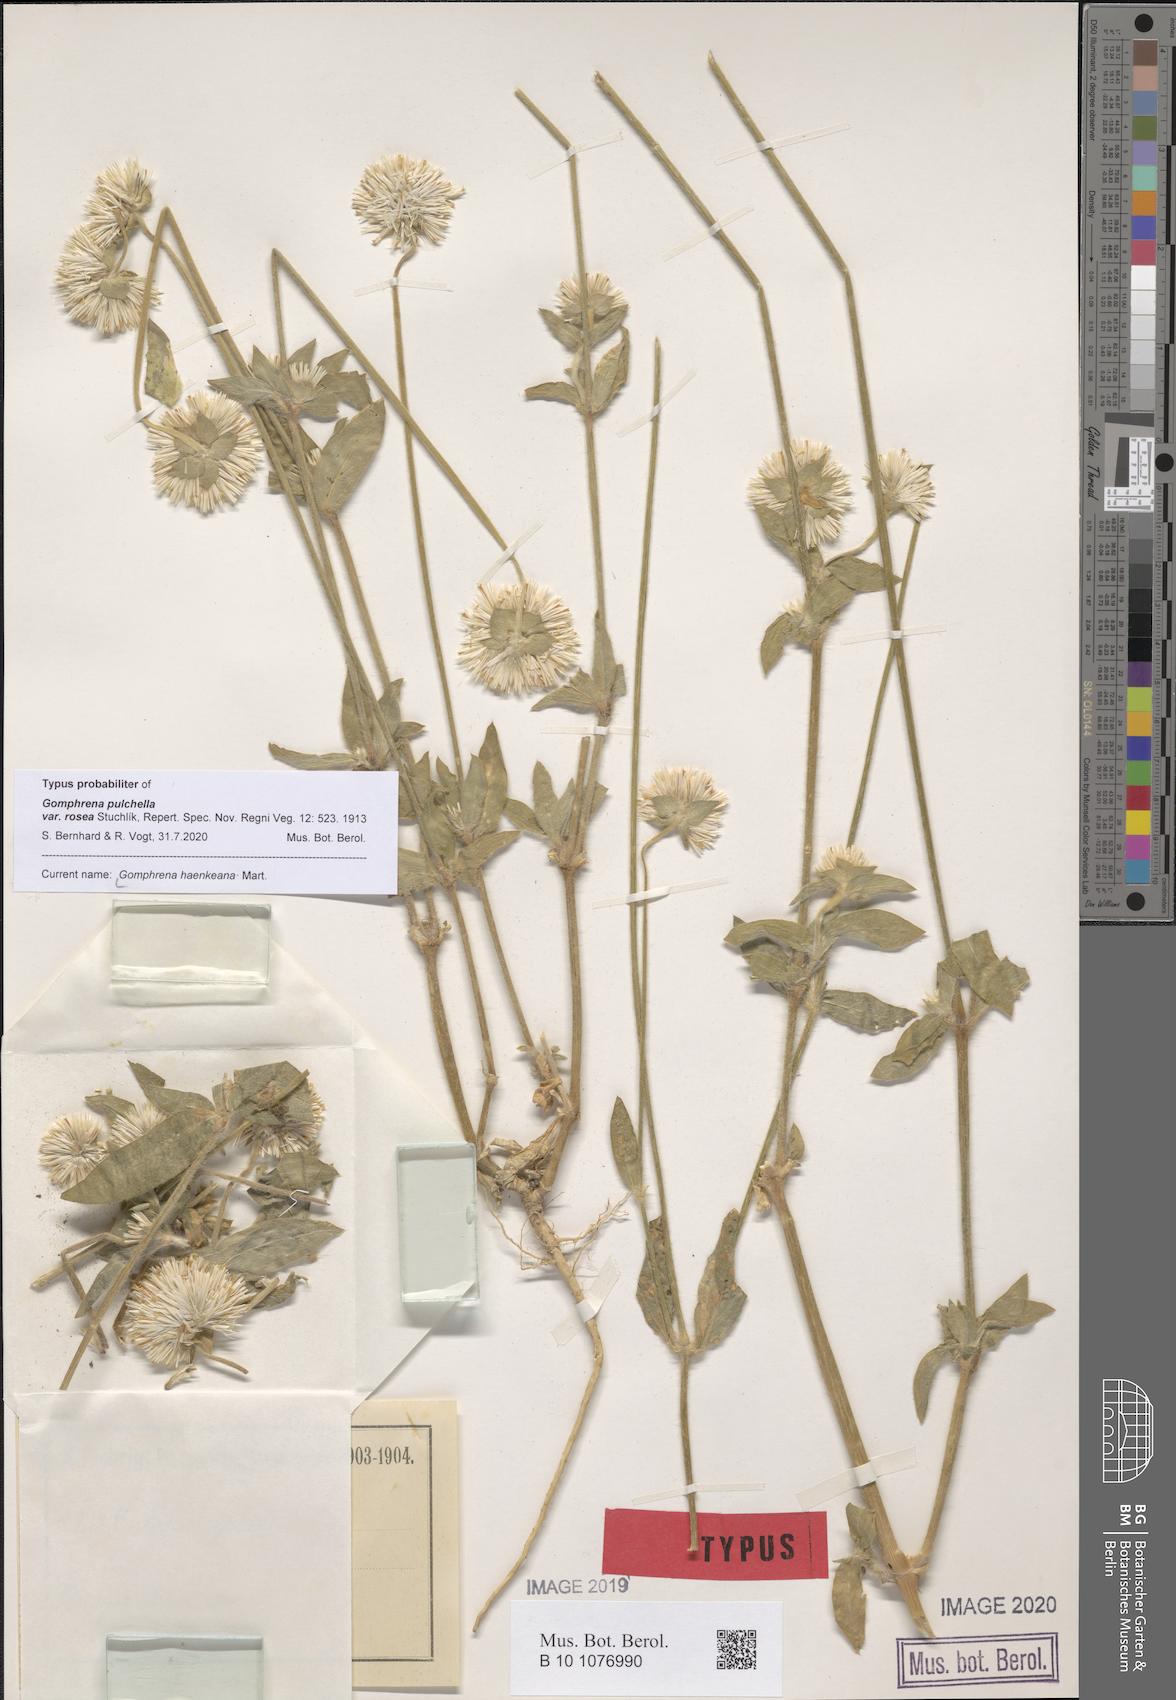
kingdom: Plantae
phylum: Tracheophyta
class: Magnoliopsida
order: Caryophyllales
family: Amaranthaceae
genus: Gomphrena
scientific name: Gomphrena haenkeana
